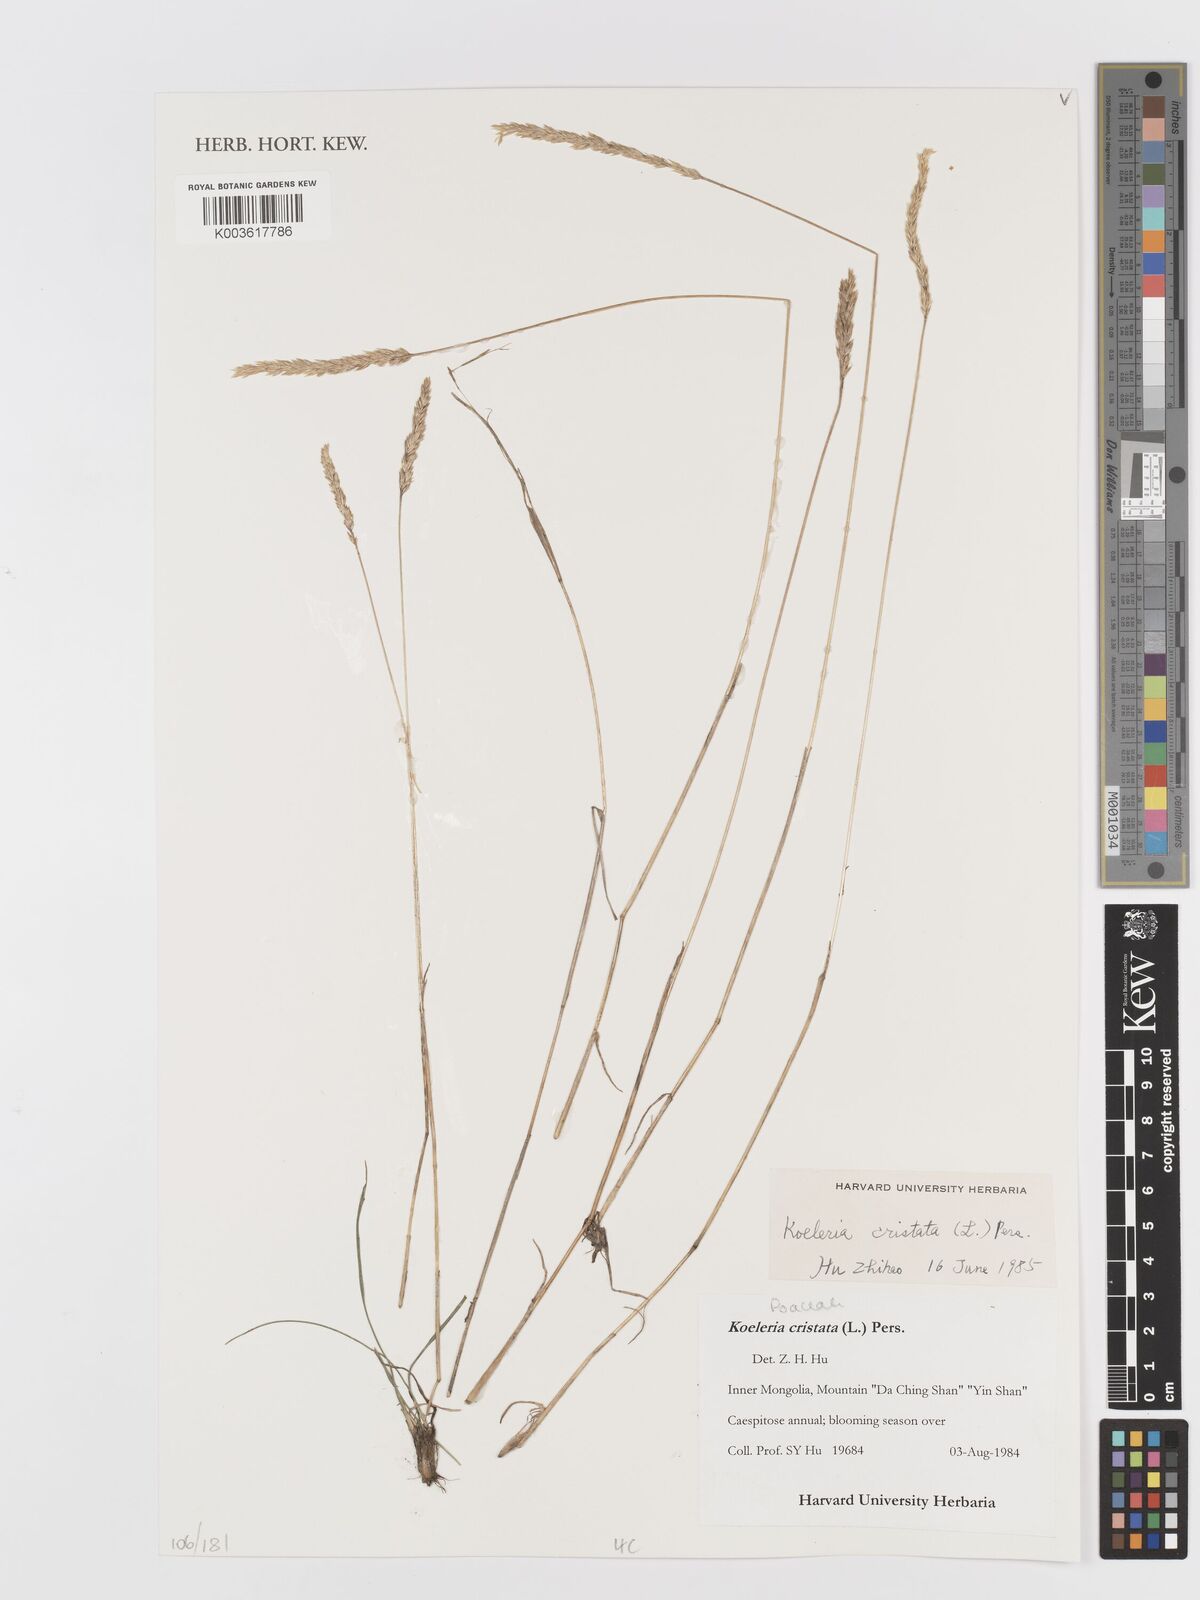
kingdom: Plantae
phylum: Tracheophyta
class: Liliopsida
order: Poales
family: Poaceae
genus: Koeleria
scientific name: Koeleria macrantha
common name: Crested hair-grass
